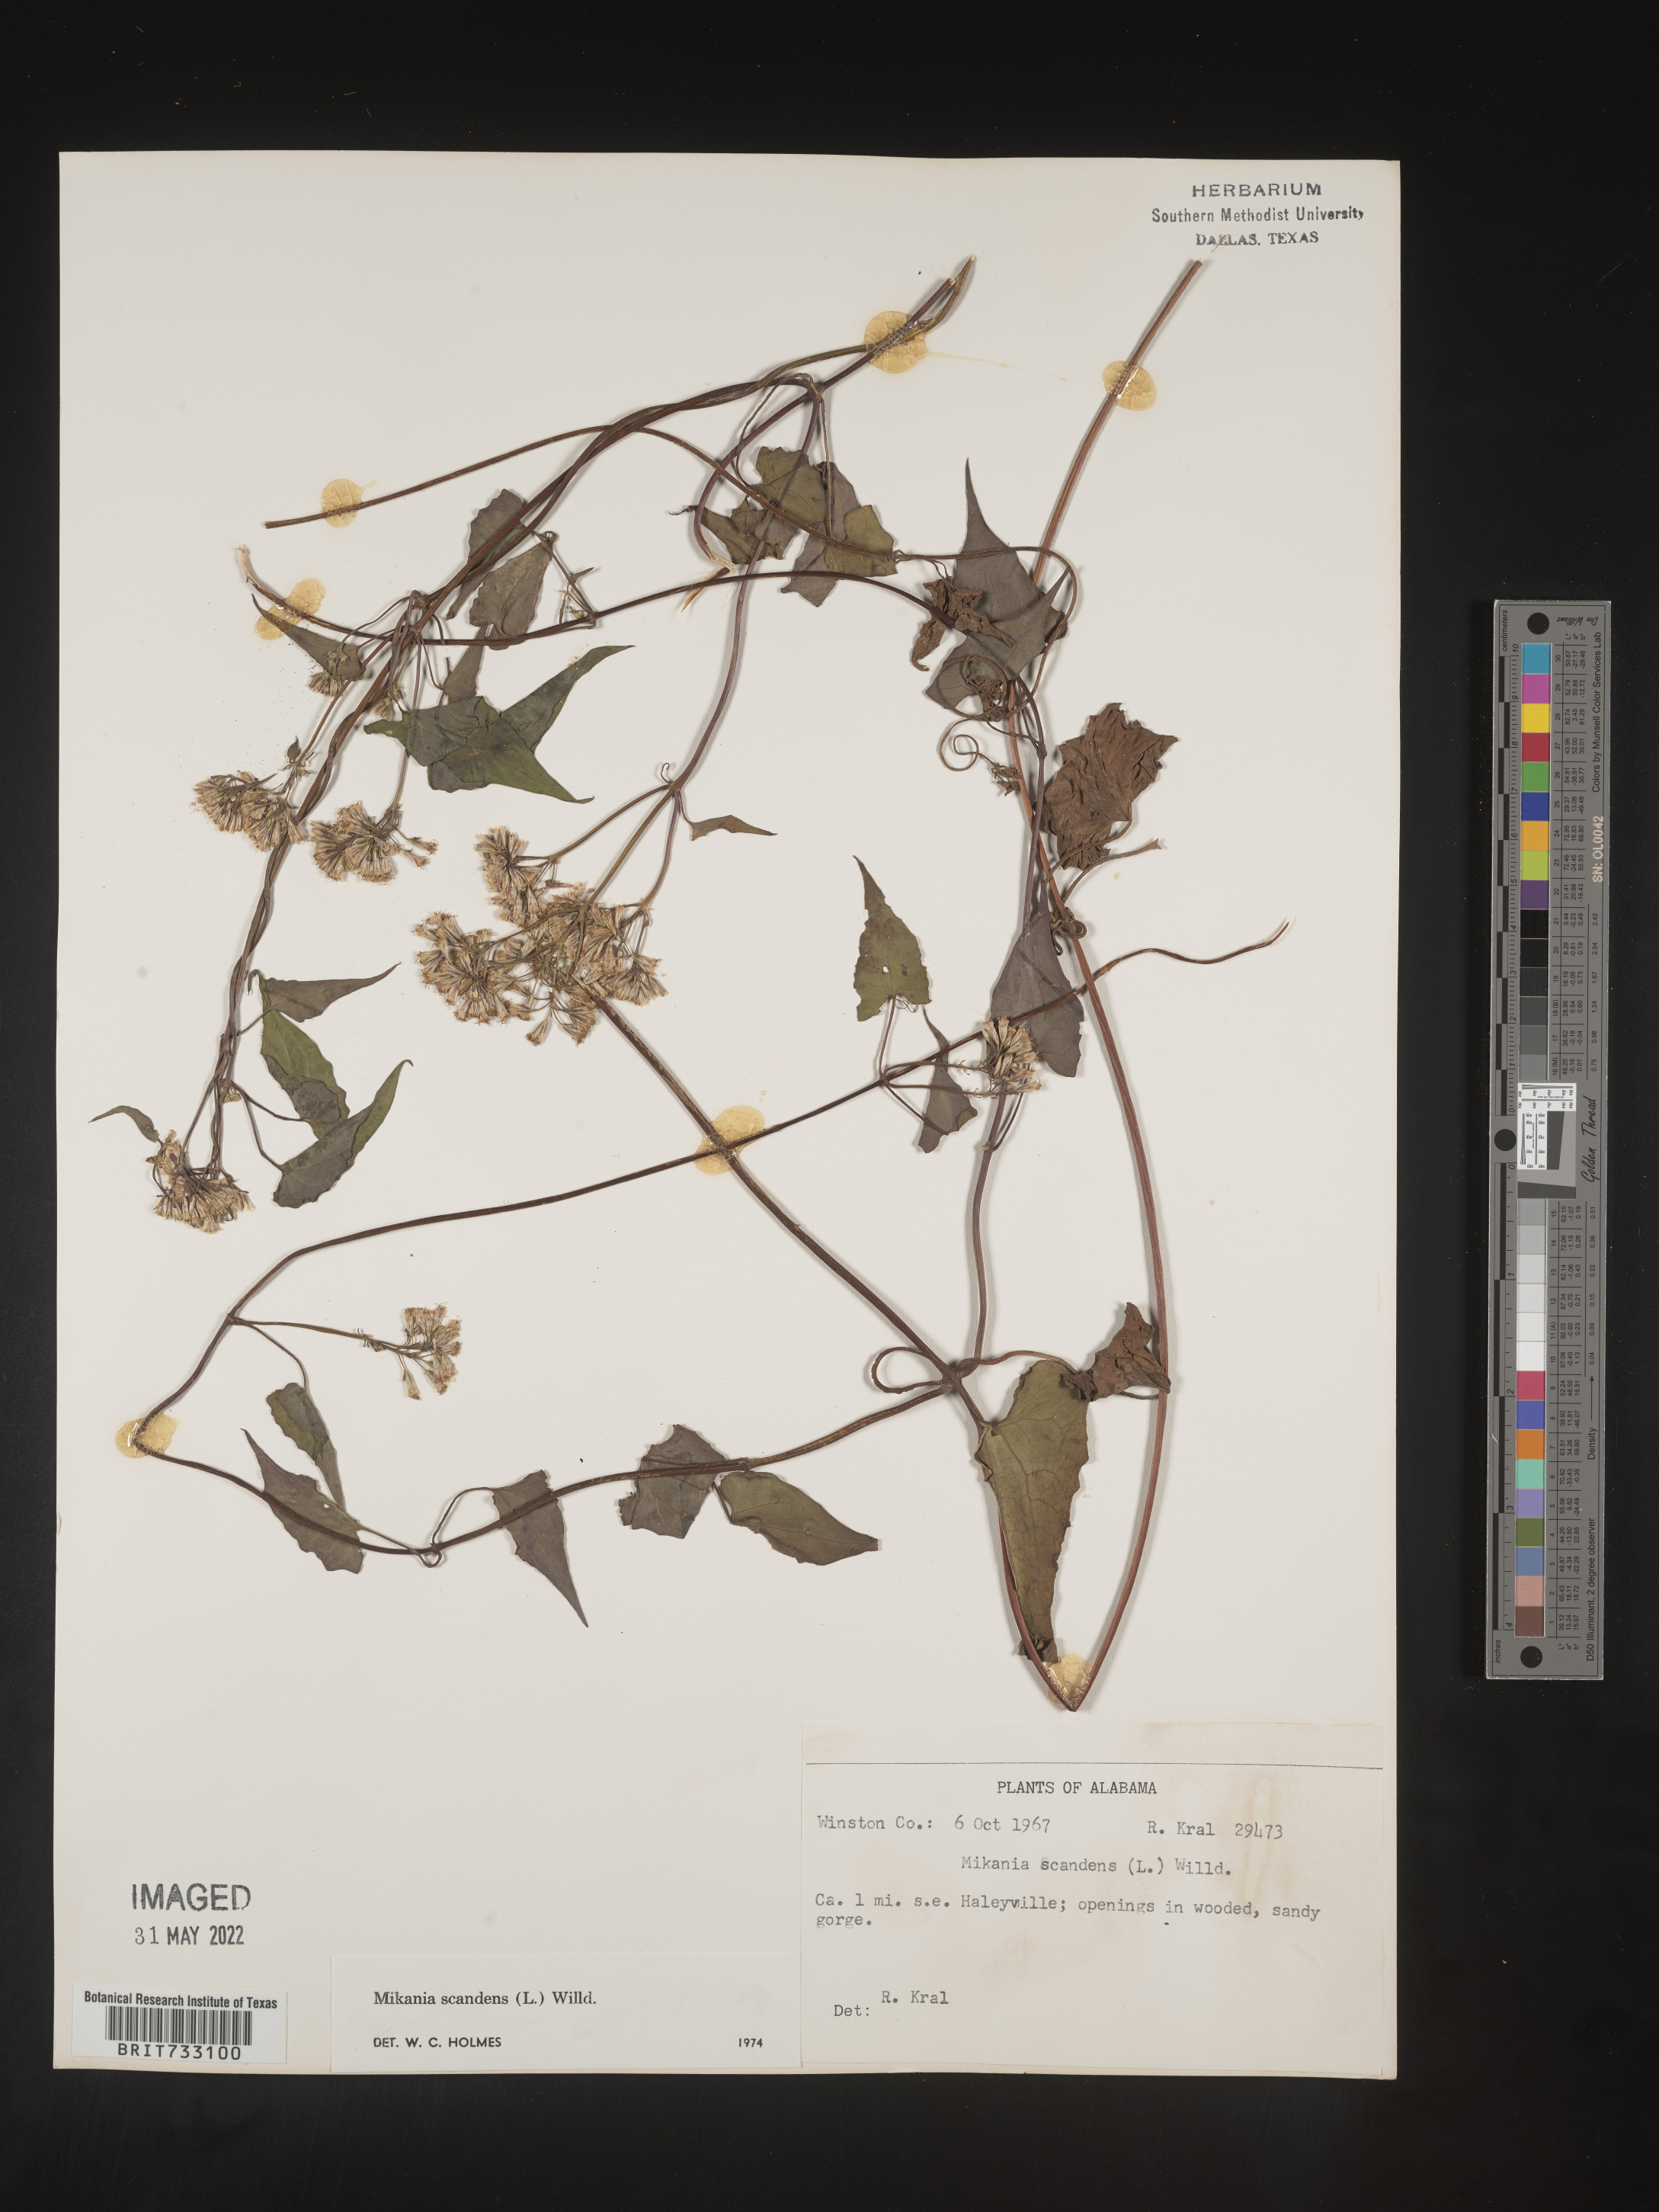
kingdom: Plantae
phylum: Tracheophyta
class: Magnoliopsida
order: Asterales
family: Asteraceae
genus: Mikania
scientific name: Mikania scandens
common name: Climbing hempvine
